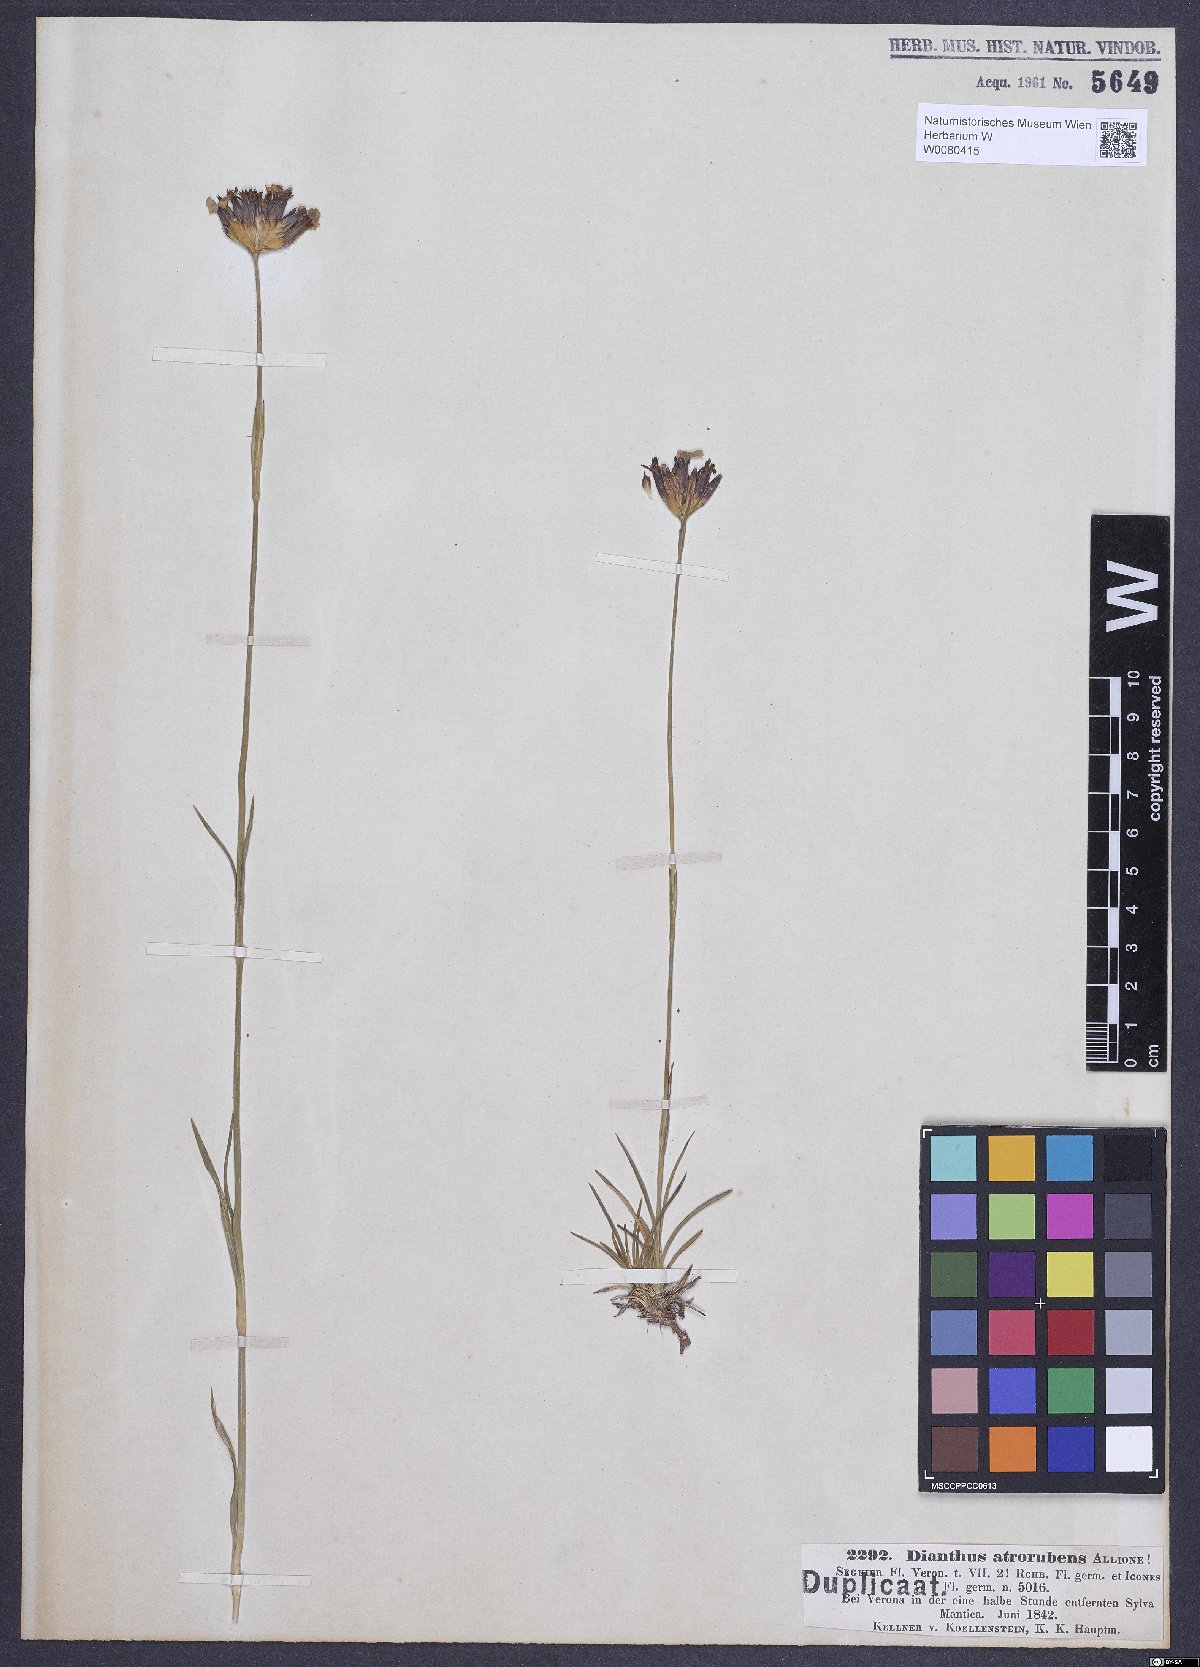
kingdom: Plantae
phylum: Tracheophyta
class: Magnoliopsida
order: Caryophyllales
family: Caryophyllaceae
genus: Dianthus
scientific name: Dianthus carthusianorum
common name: Carthusian pink
